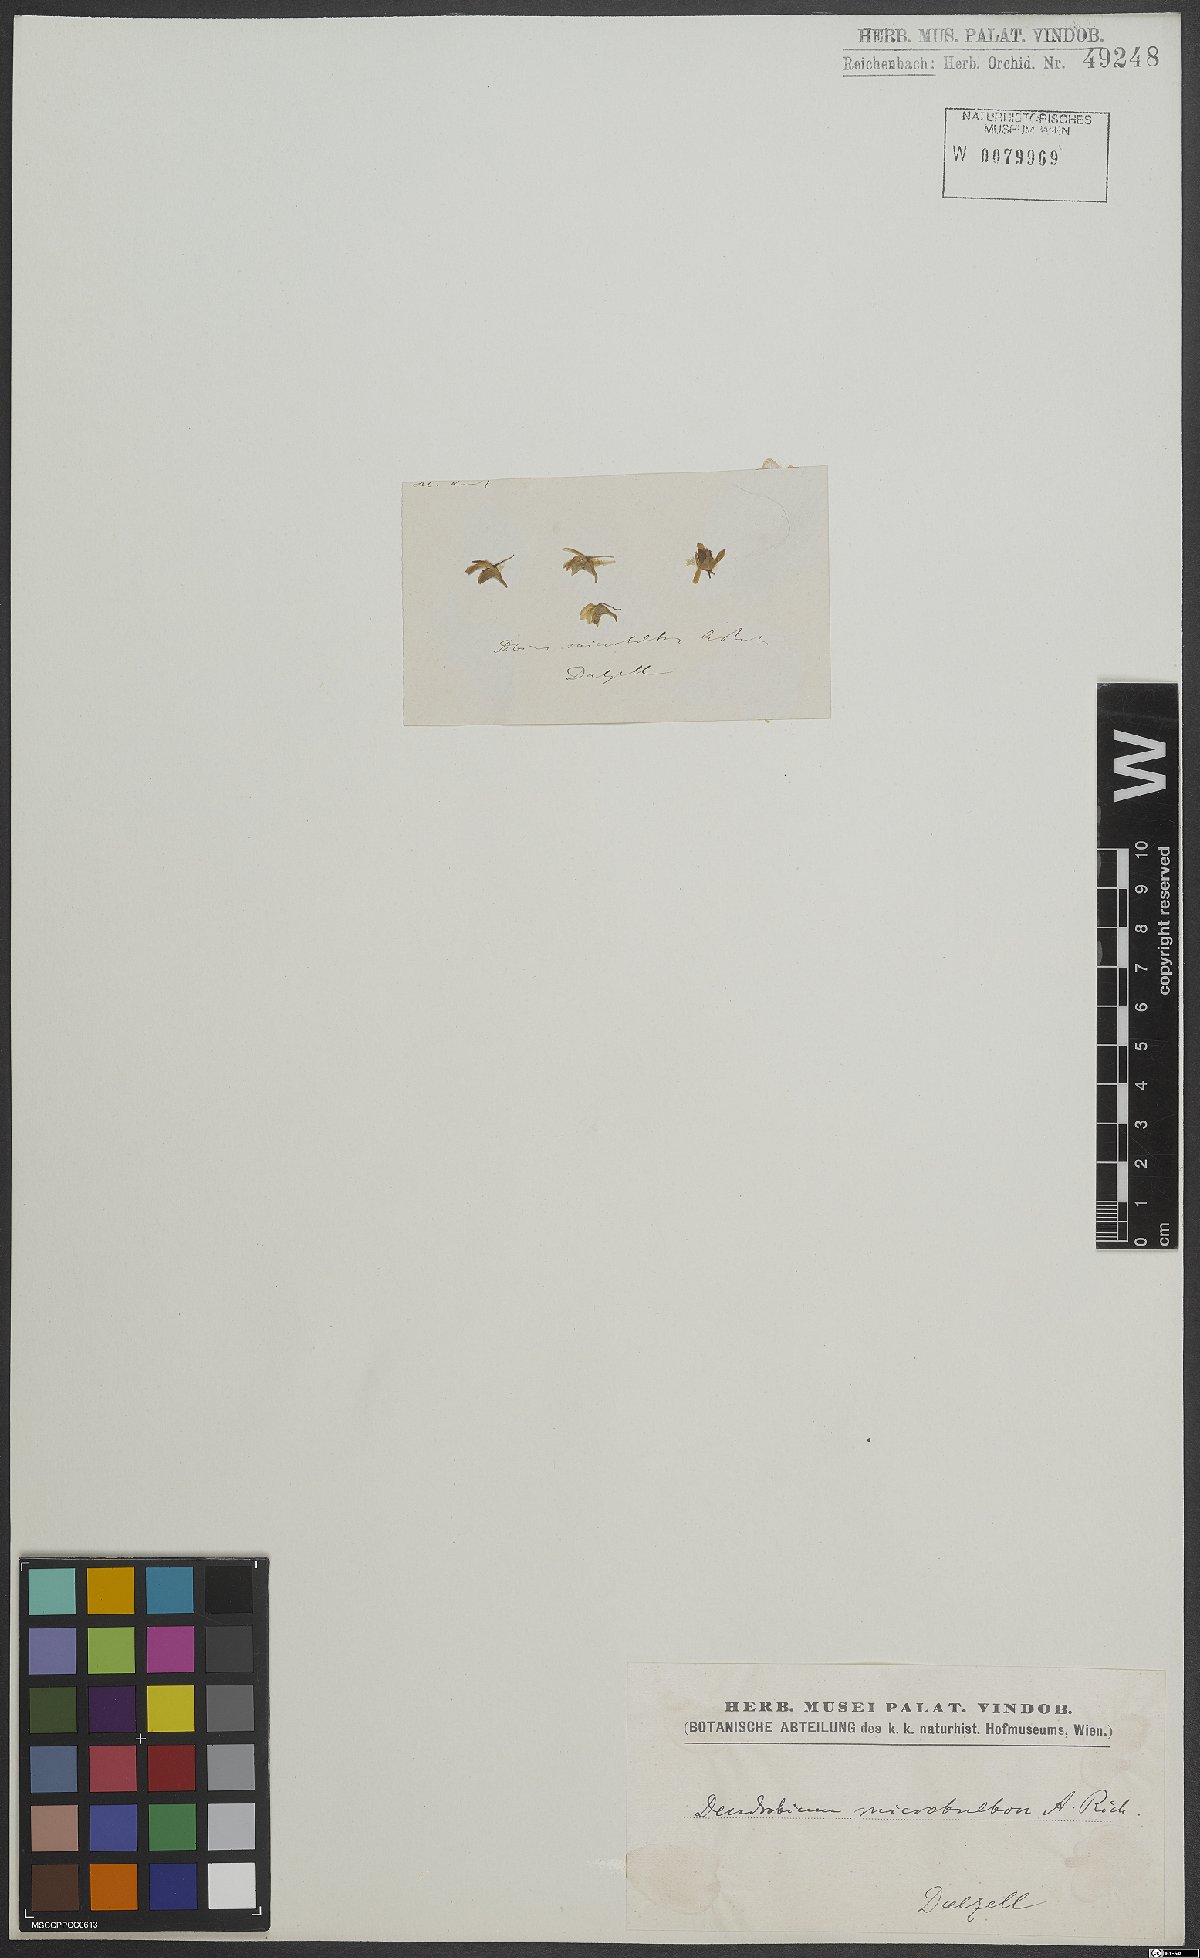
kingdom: Plantae
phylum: Tracheophyta
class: Liliopsida
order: Asparagales
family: Orchidaceae
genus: Dendrobium
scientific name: Dendrobium microbulbon
